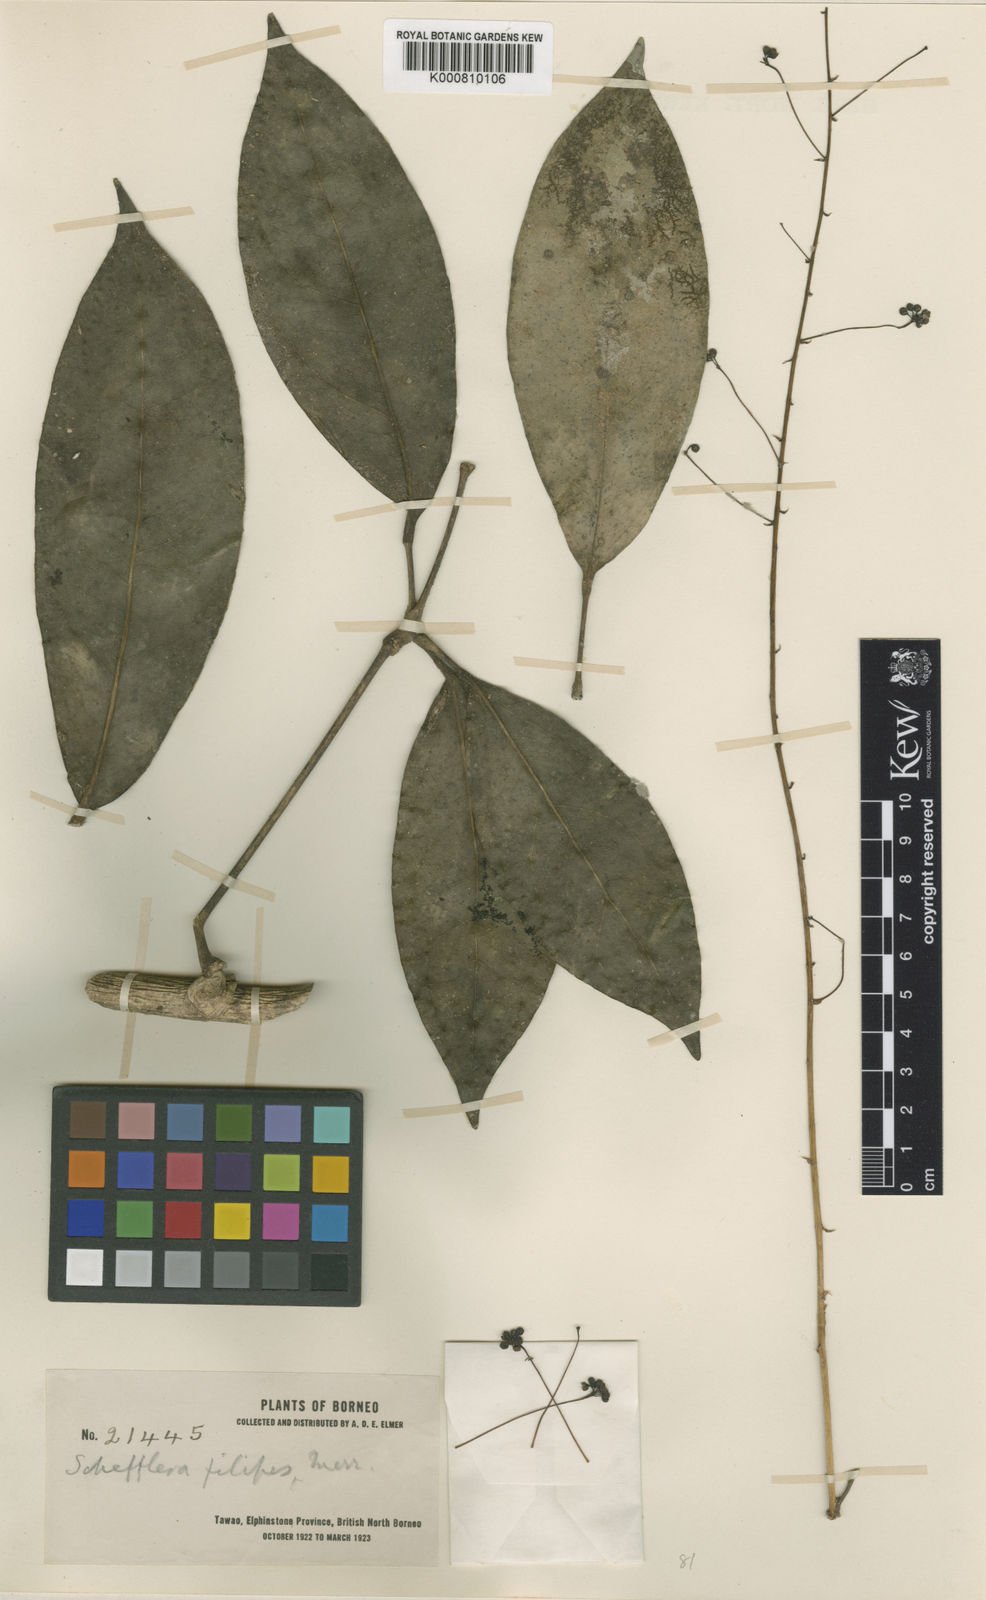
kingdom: Plantae
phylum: Tracheophyta
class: Magnoliopsida
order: Apiales
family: Araliaceae
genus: Heptapleurum
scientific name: Heptapleurum filipes
